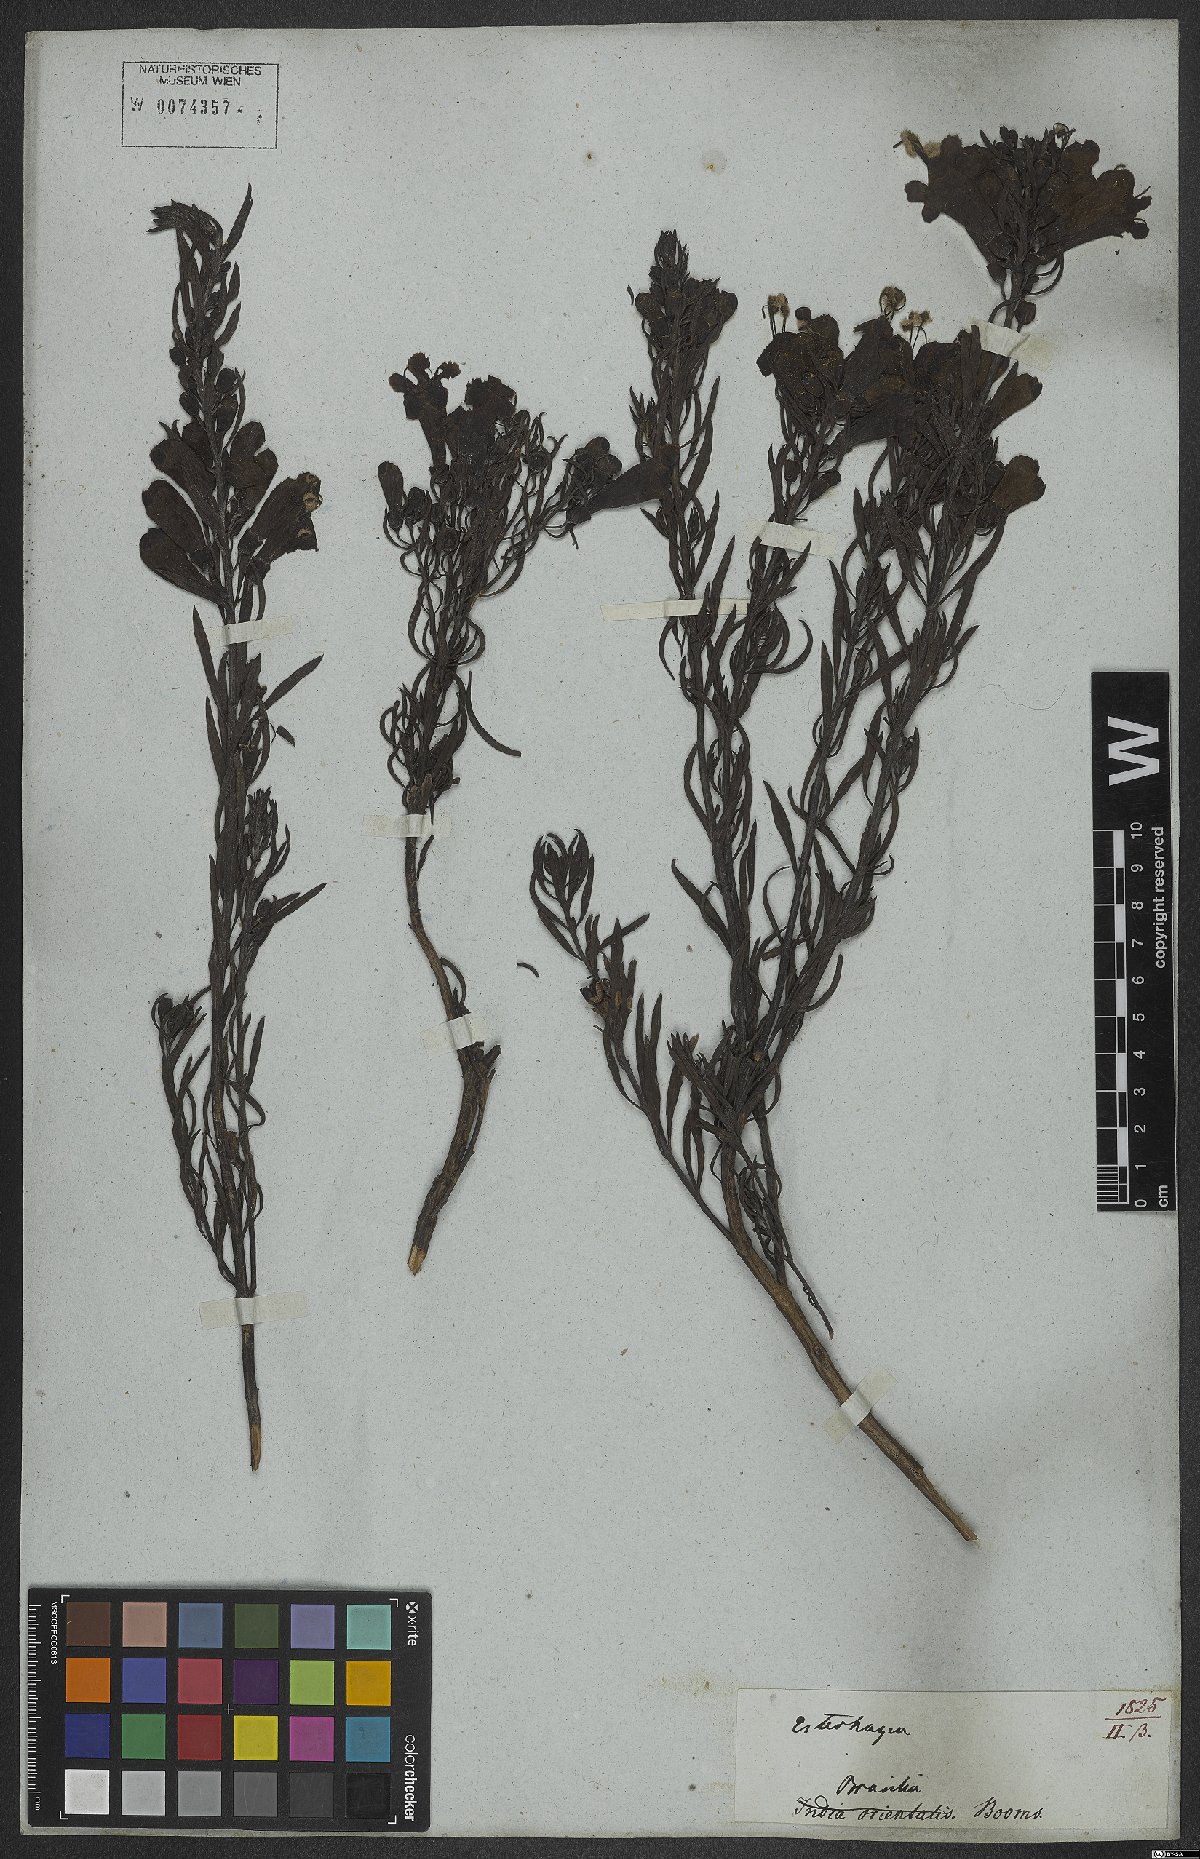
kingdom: Plantae
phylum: Tracheophyta
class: Magnoliopsida
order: Lamiales
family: Orobanchaceae
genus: Esterhazya
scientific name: Esterhazya splendida
